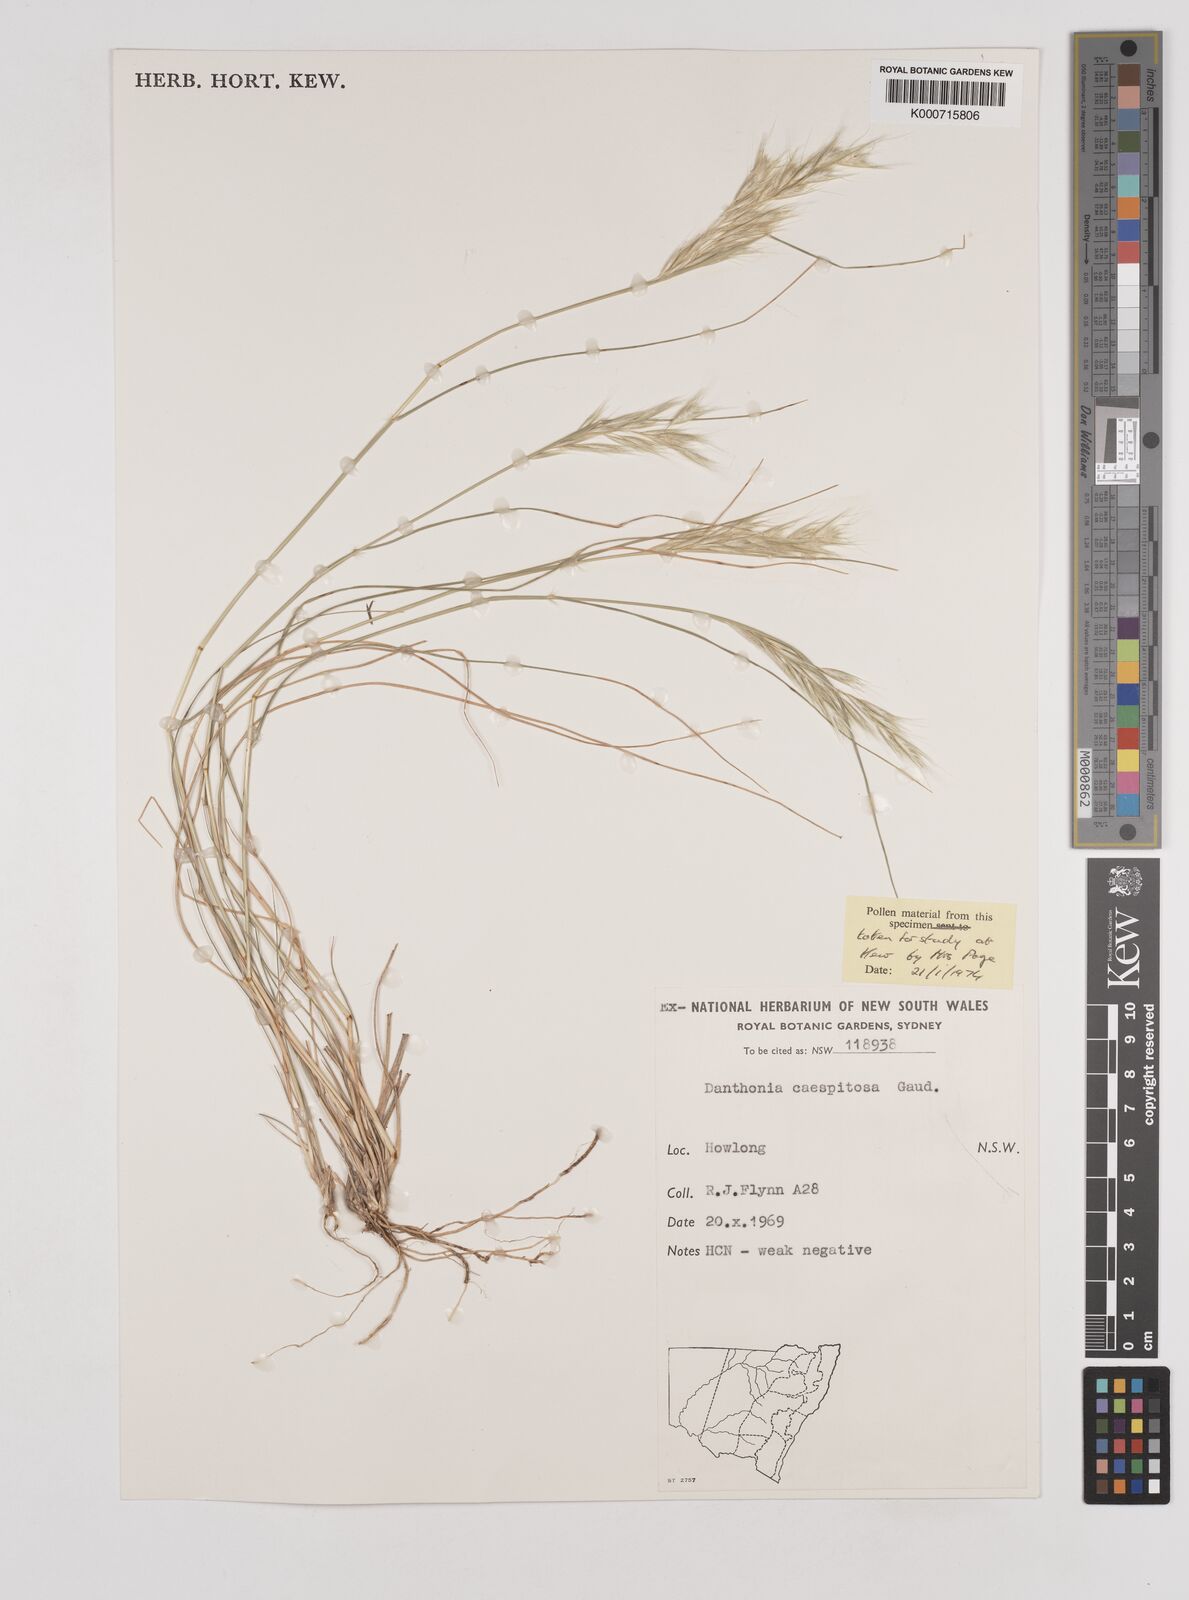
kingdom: Plantae
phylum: Tracheophyta
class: Liliopsida
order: Poales
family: Poaceae
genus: Rytidosperma
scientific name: Rytidosperma caespitosum
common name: Tufted wallaby grass
